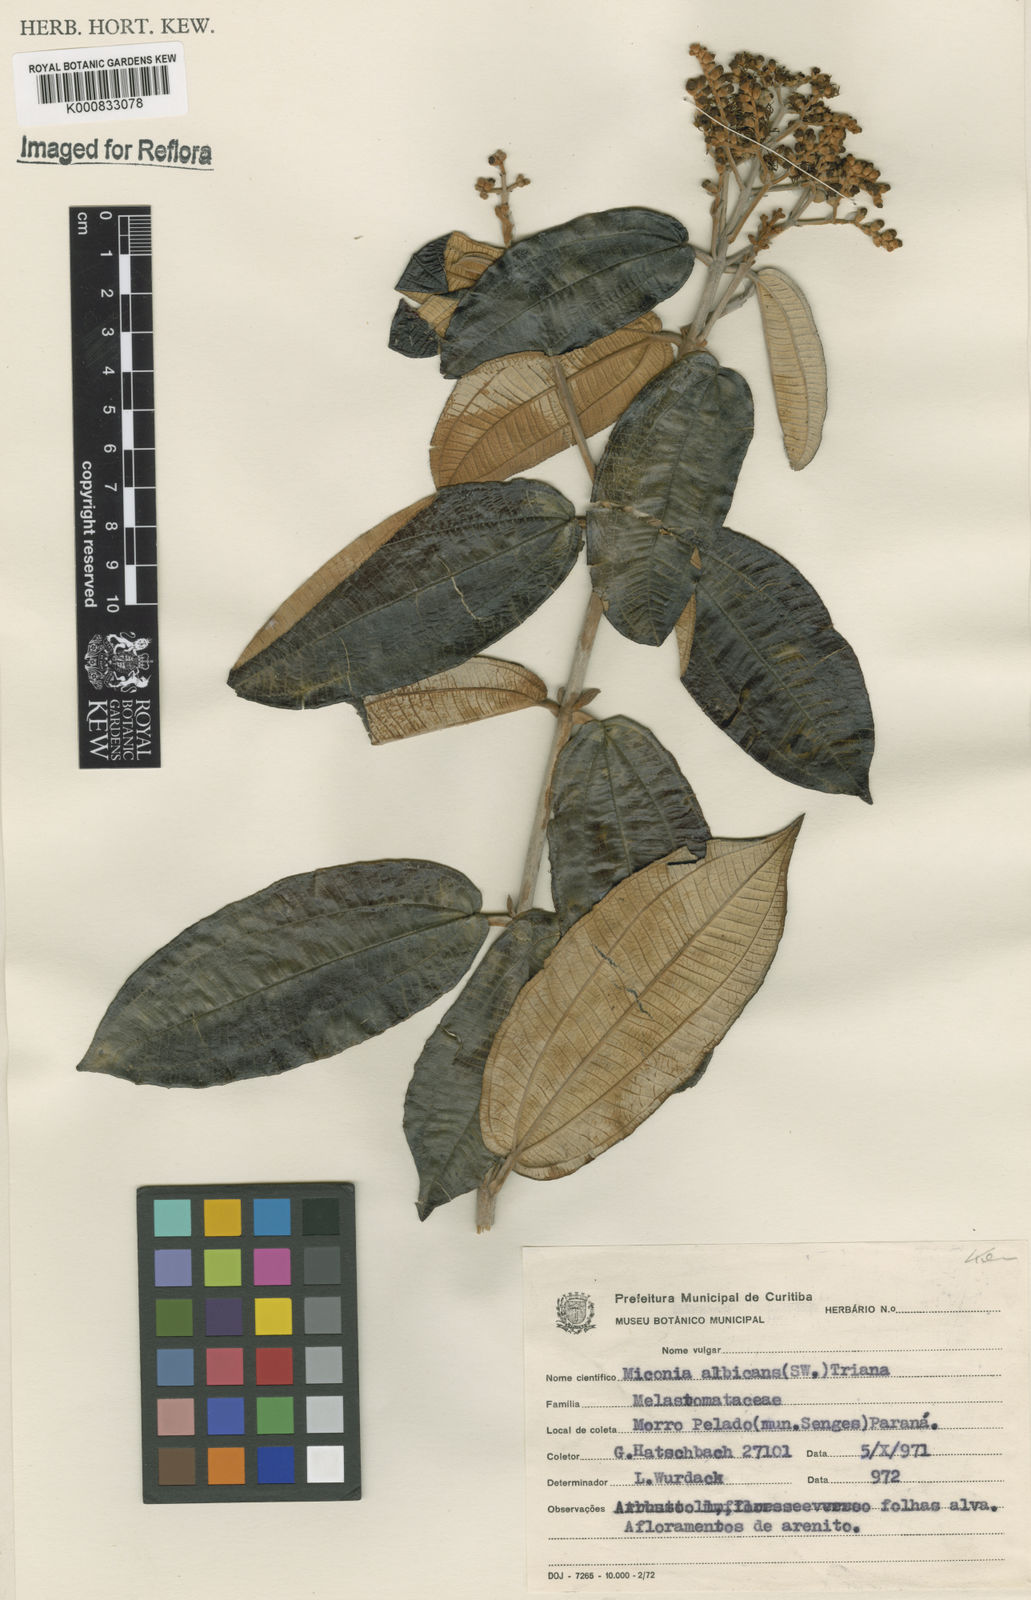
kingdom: Plantae
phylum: Tracheophyta
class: Magnoliopsida
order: Myrtales
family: Melastomataceae
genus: Miconia
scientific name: Miconia albicans
